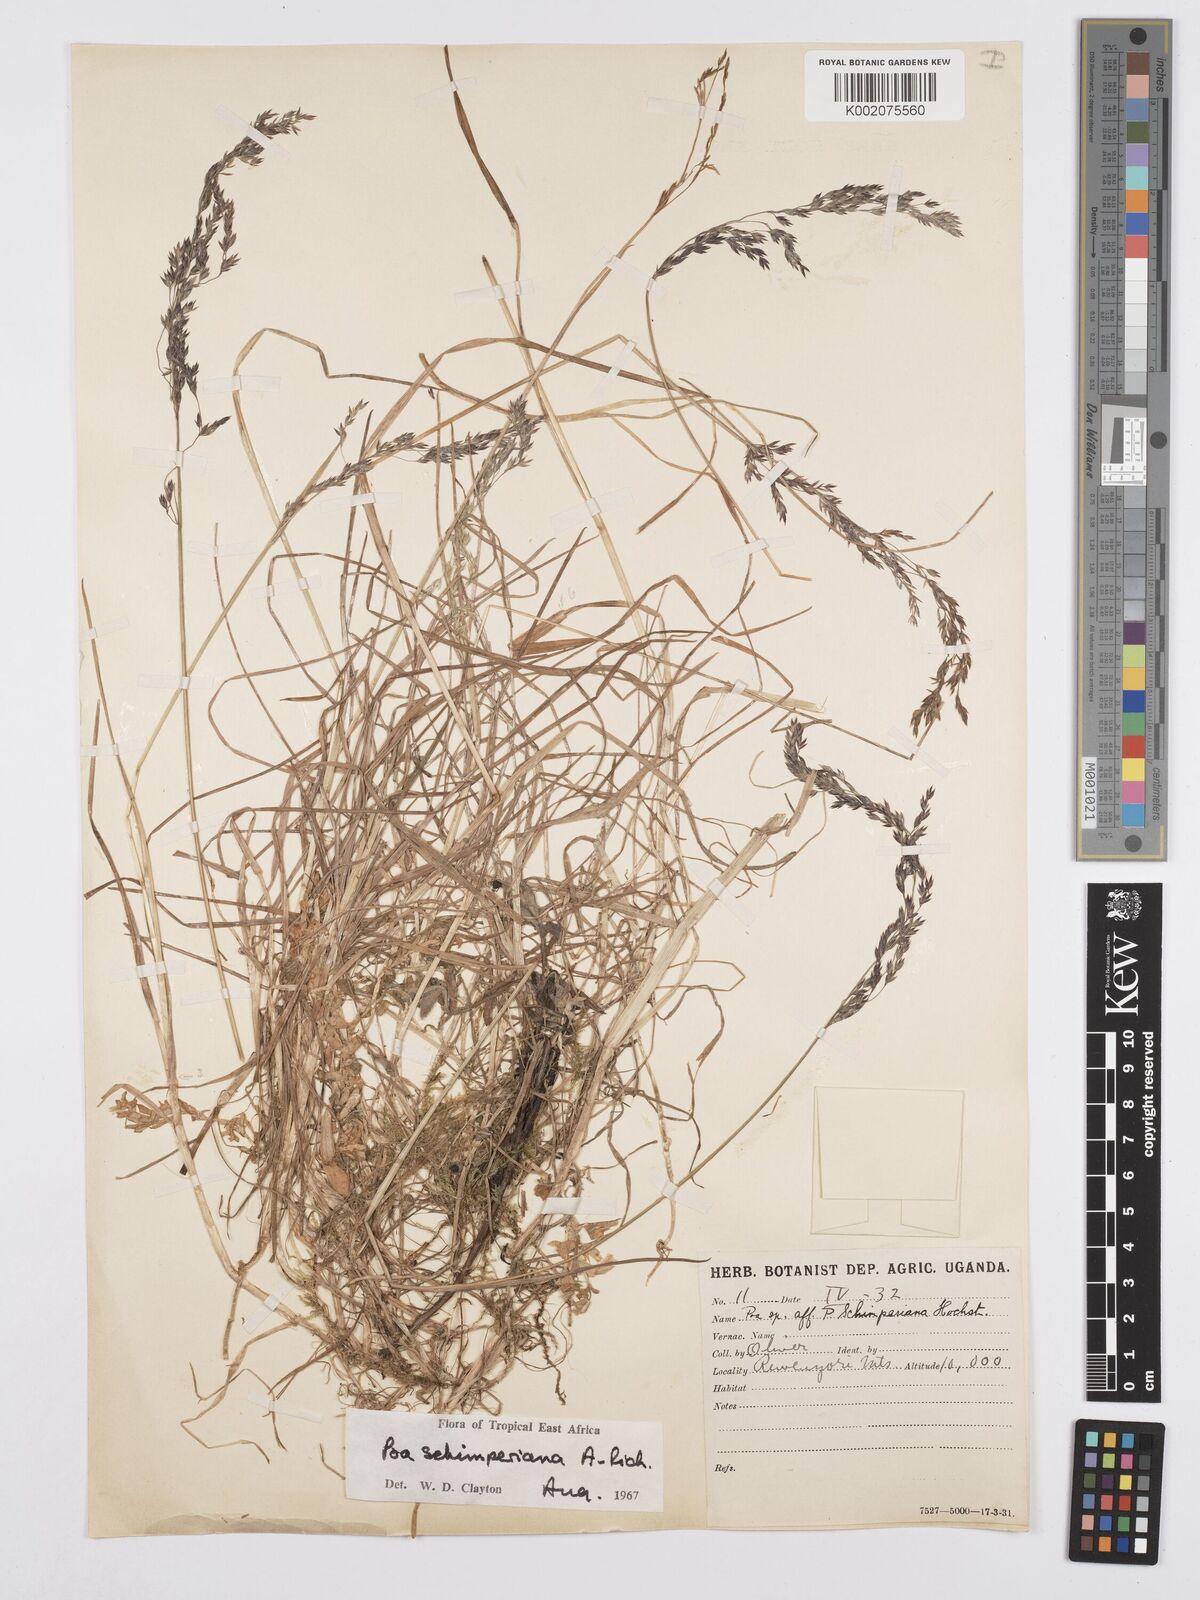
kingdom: Plantae
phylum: Tracheophyta
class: Liliopsida
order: Poales
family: Poaceae
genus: Poa
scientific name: Poa schimperiana
